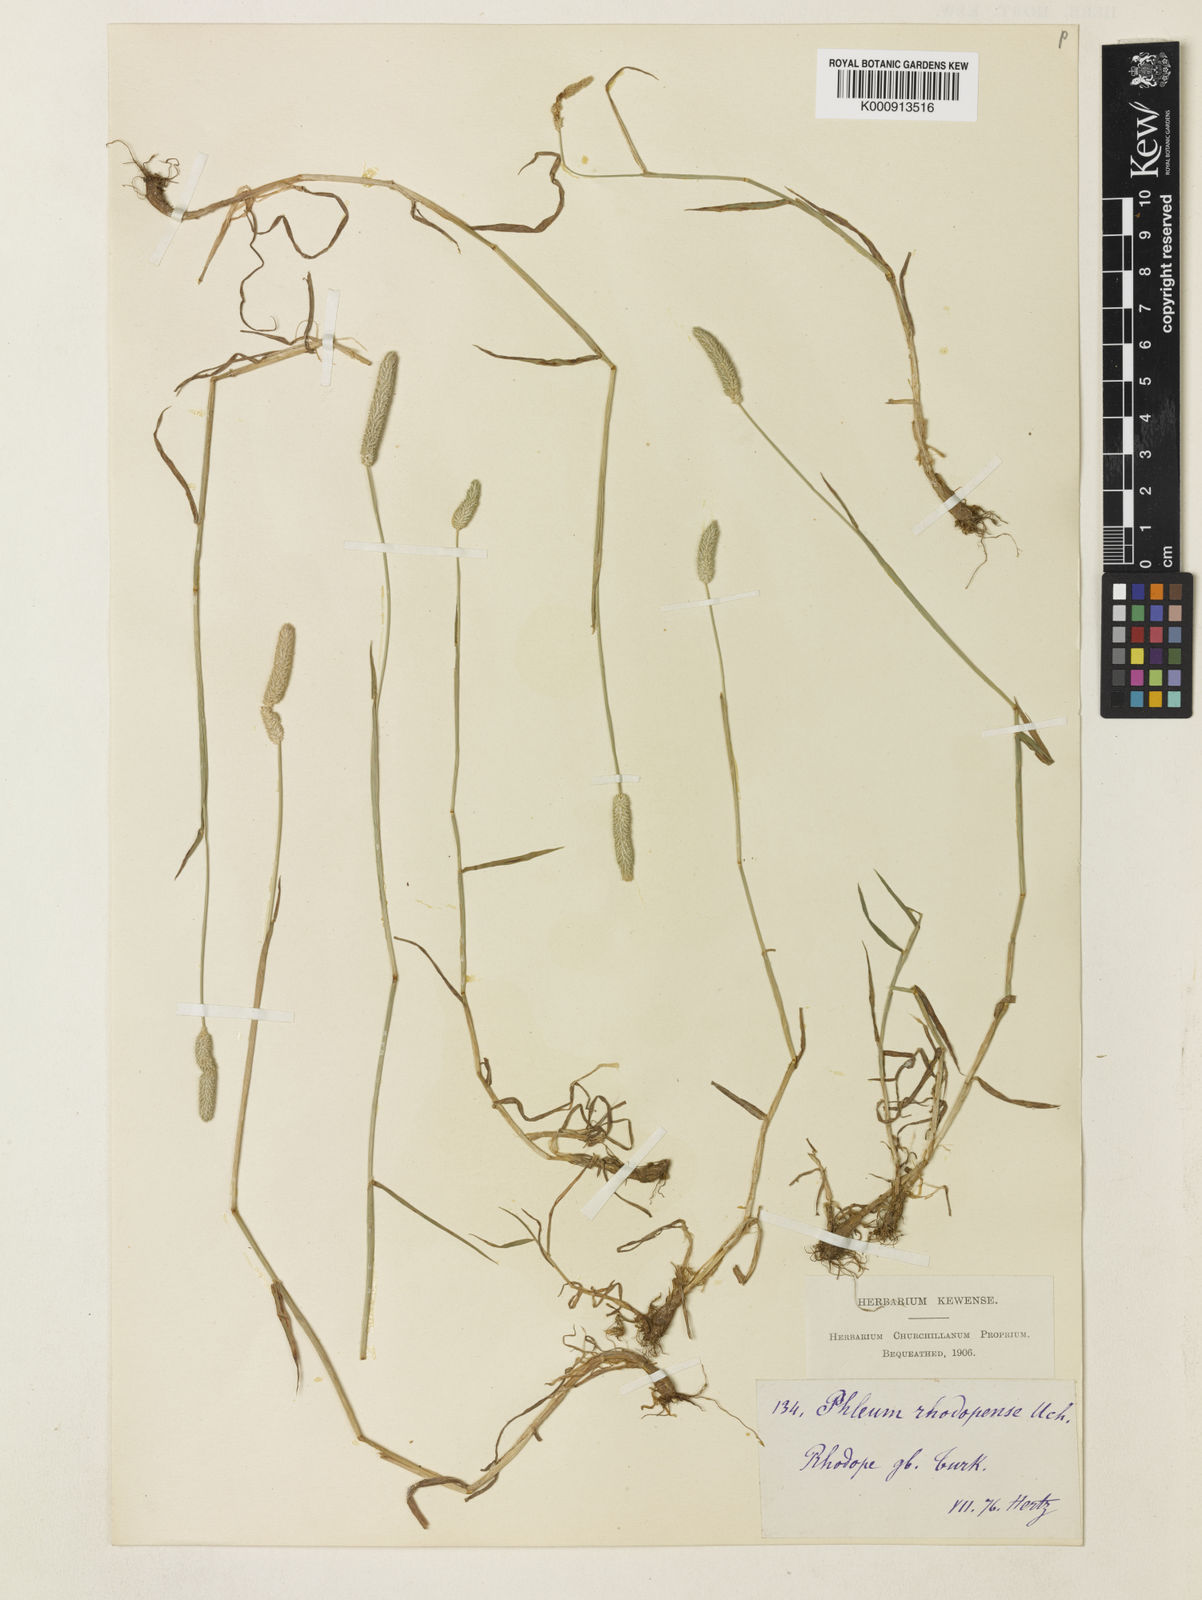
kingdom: Plantae
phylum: Tracheophyta
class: Liliopsida
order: Poales
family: Poaceae
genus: Phleum
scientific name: Phleum
